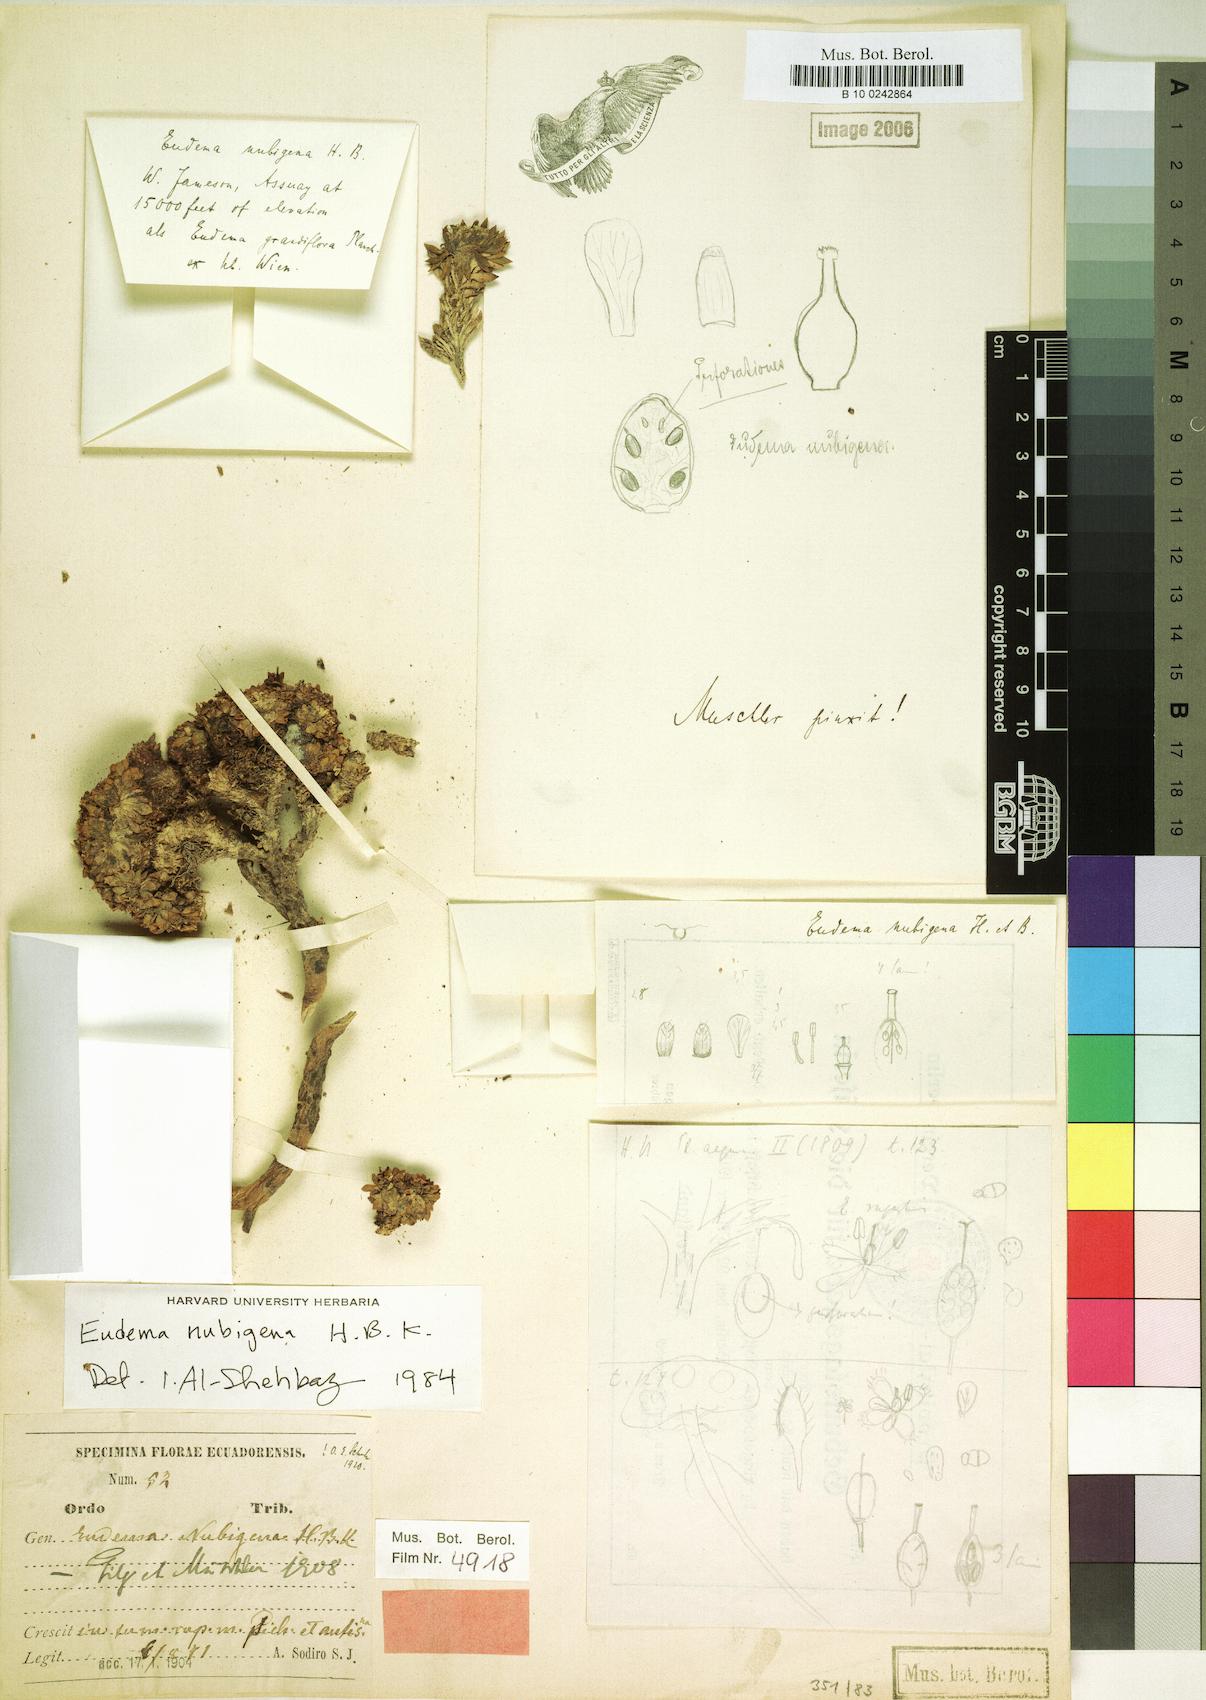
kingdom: Plantae
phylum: Tracheophyta
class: Magnoliopsida
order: Brassicales
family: Brassicaceae
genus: Eudema
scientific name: Eudema nubigena
